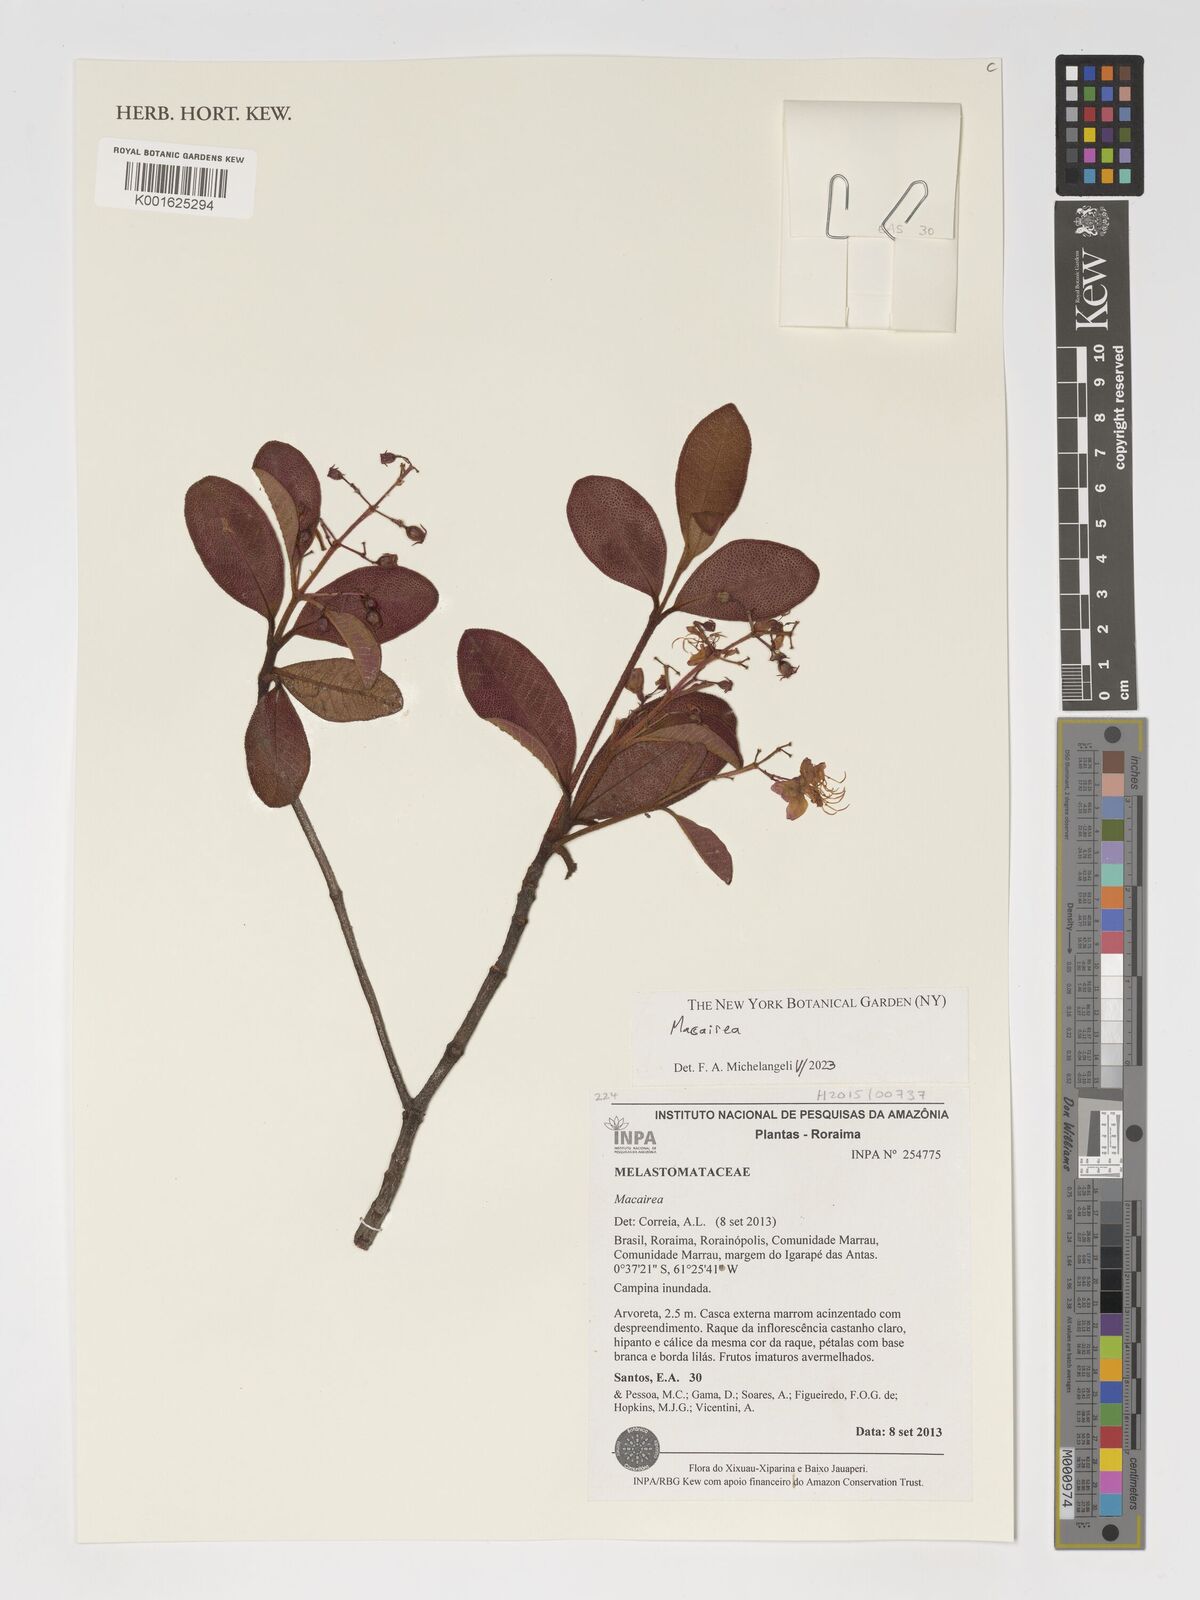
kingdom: Plantae
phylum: Tracheophyta
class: Magnoliopsida
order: Myrtales
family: Melastomataceae
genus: Macairea
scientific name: Macairea
